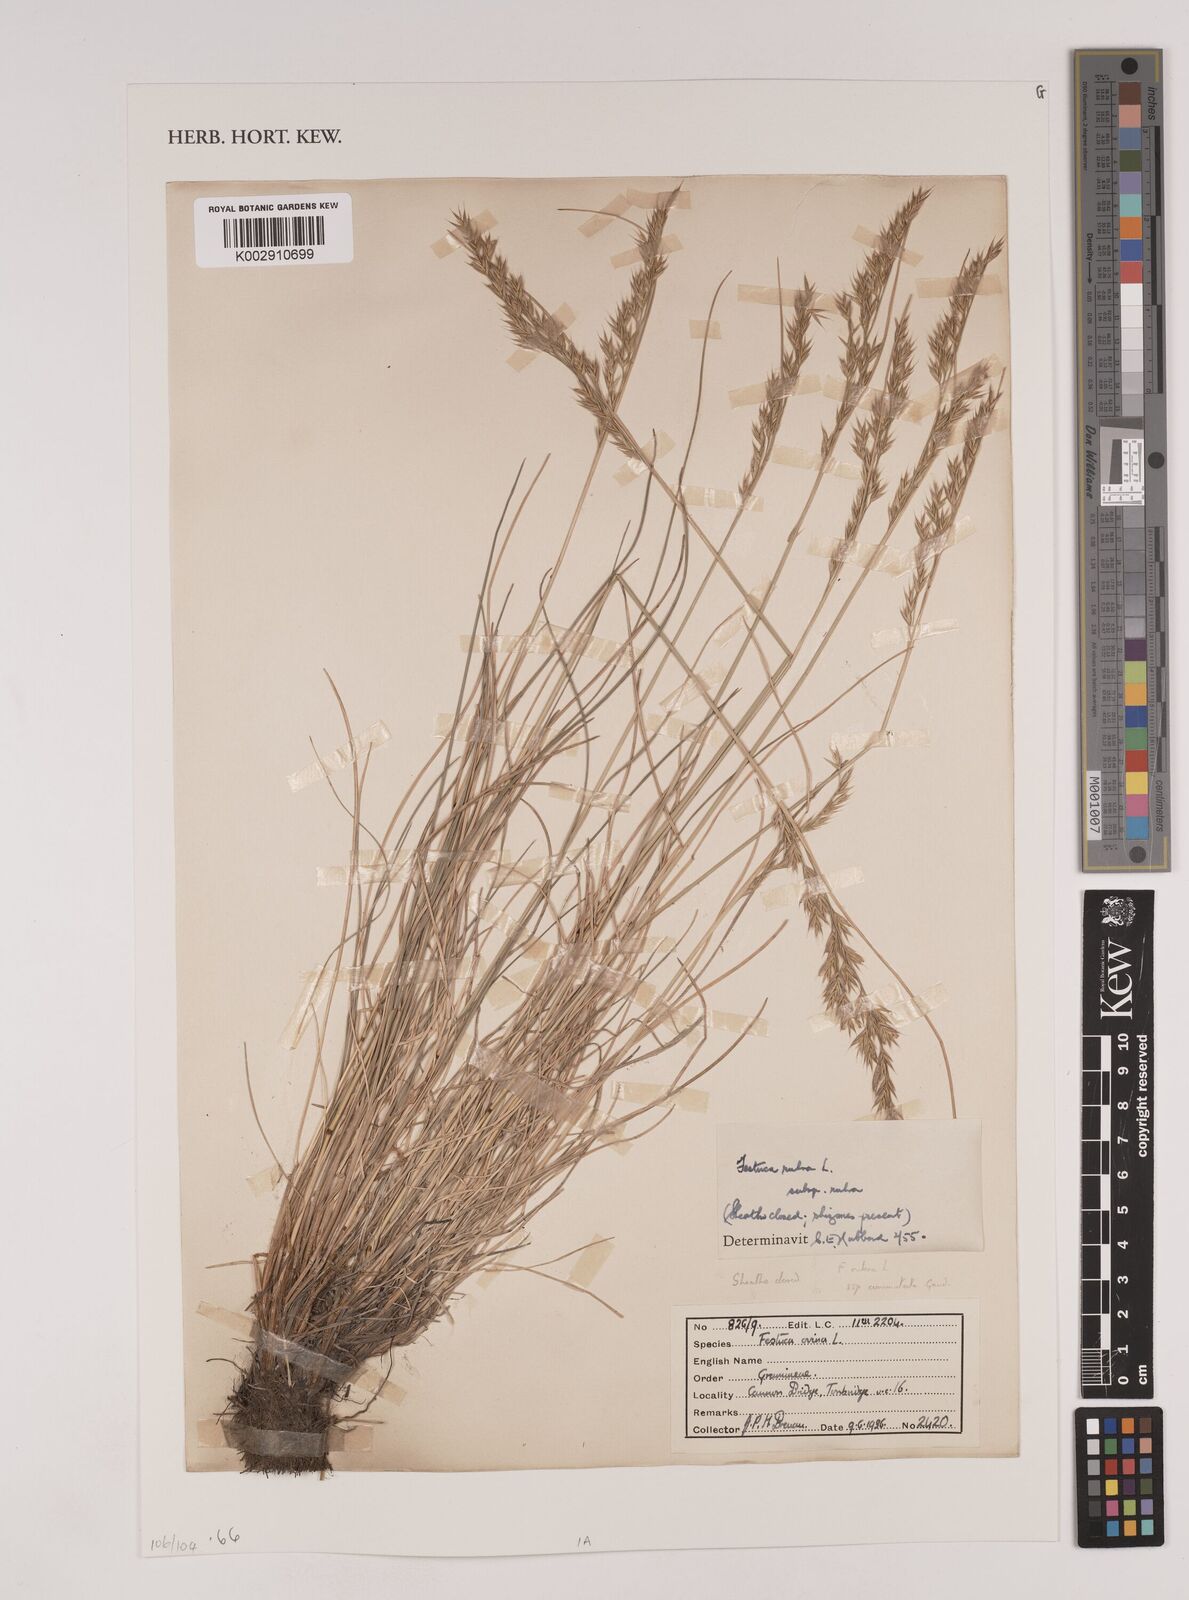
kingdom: Plantae
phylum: Tracheophyta
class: Liliopsida
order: Poales
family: Poaceae
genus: Festuca
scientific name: Festuca rubra
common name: Red fescue
